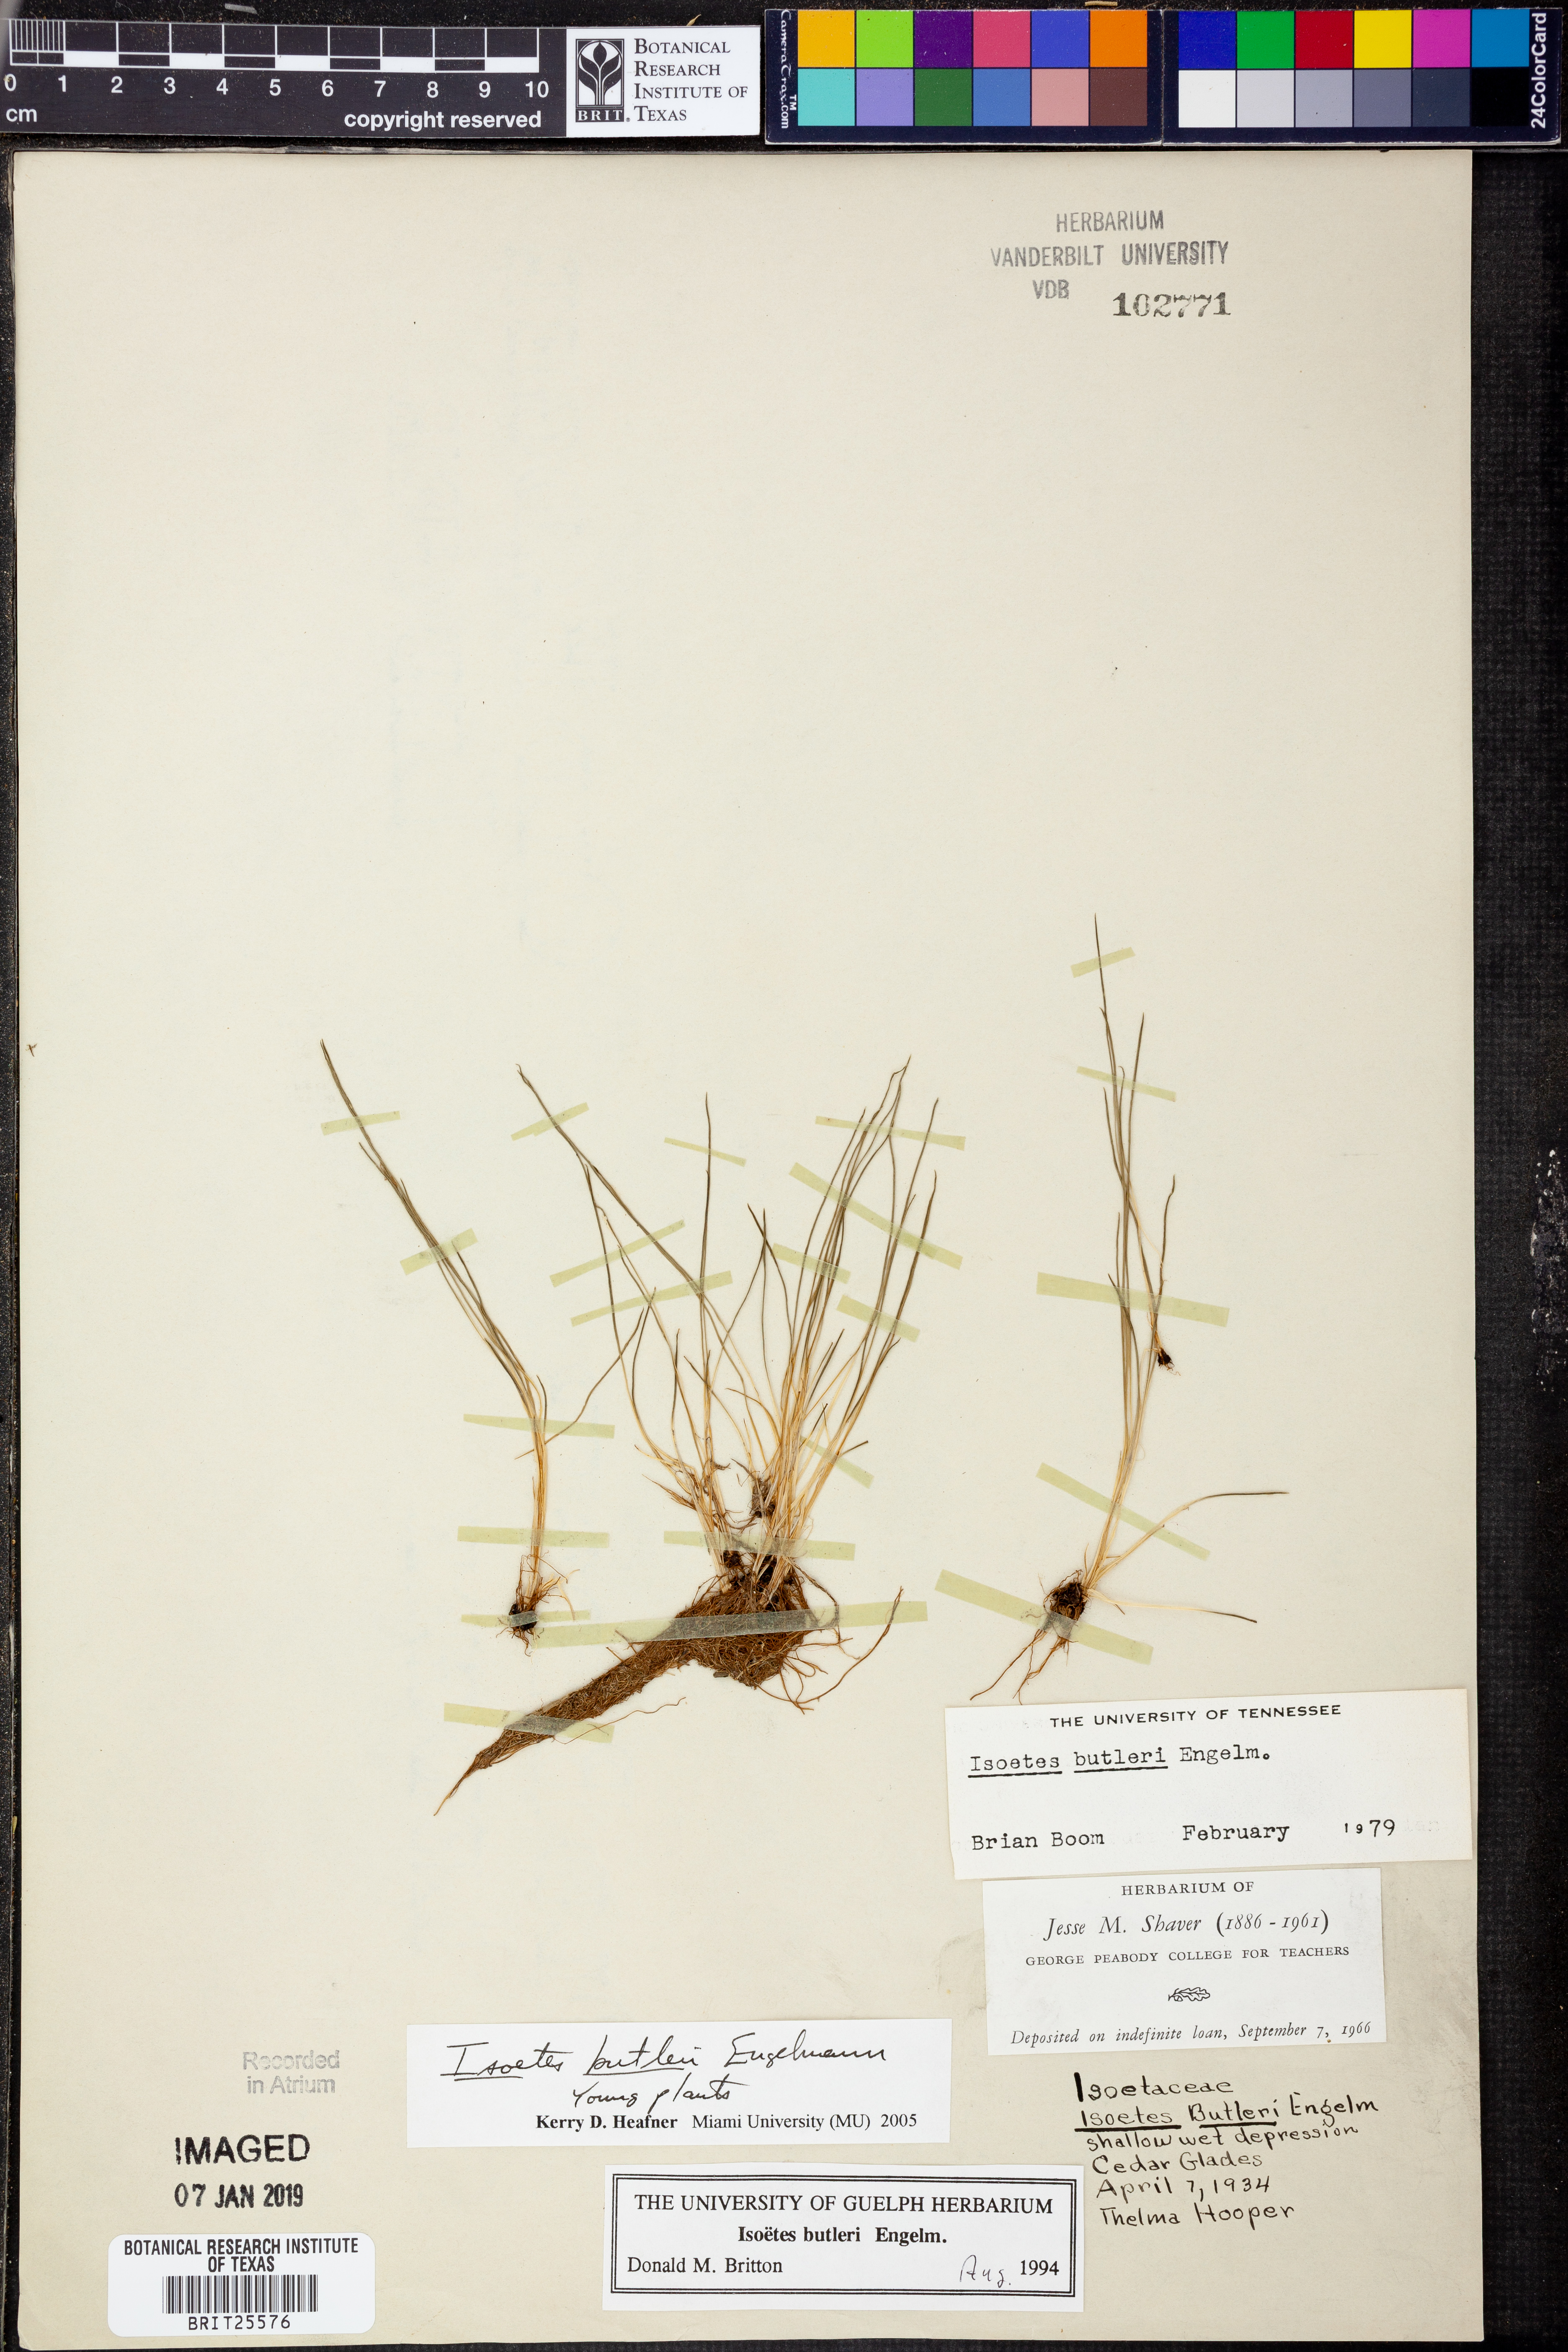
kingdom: Plantae
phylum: Tracheophyta
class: Lycopodiopsida
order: Isoetales
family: Isoetaceae
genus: Isoetes
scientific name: Isoetes butleri
